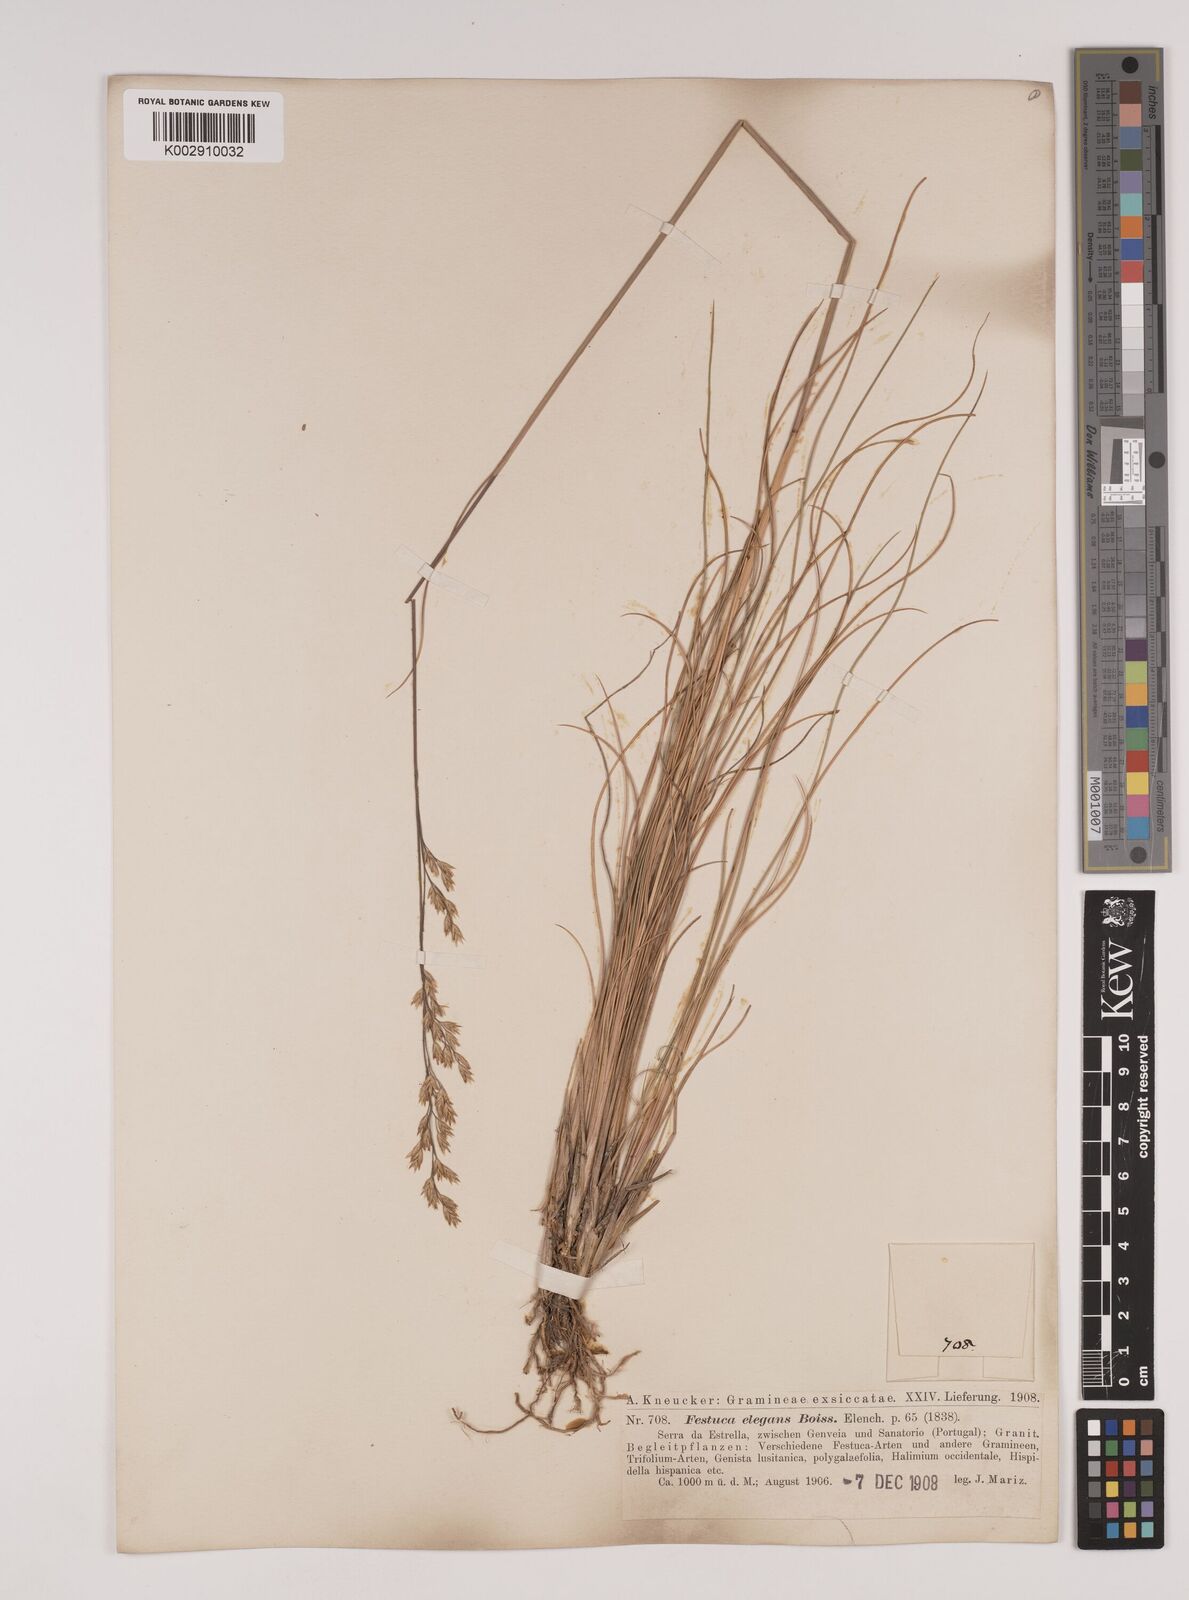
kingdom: Plantae
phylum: Tracheophyta
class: Liliopsida
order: Poales
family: Poaceae
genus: Festuca
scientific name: Festuca elegans
